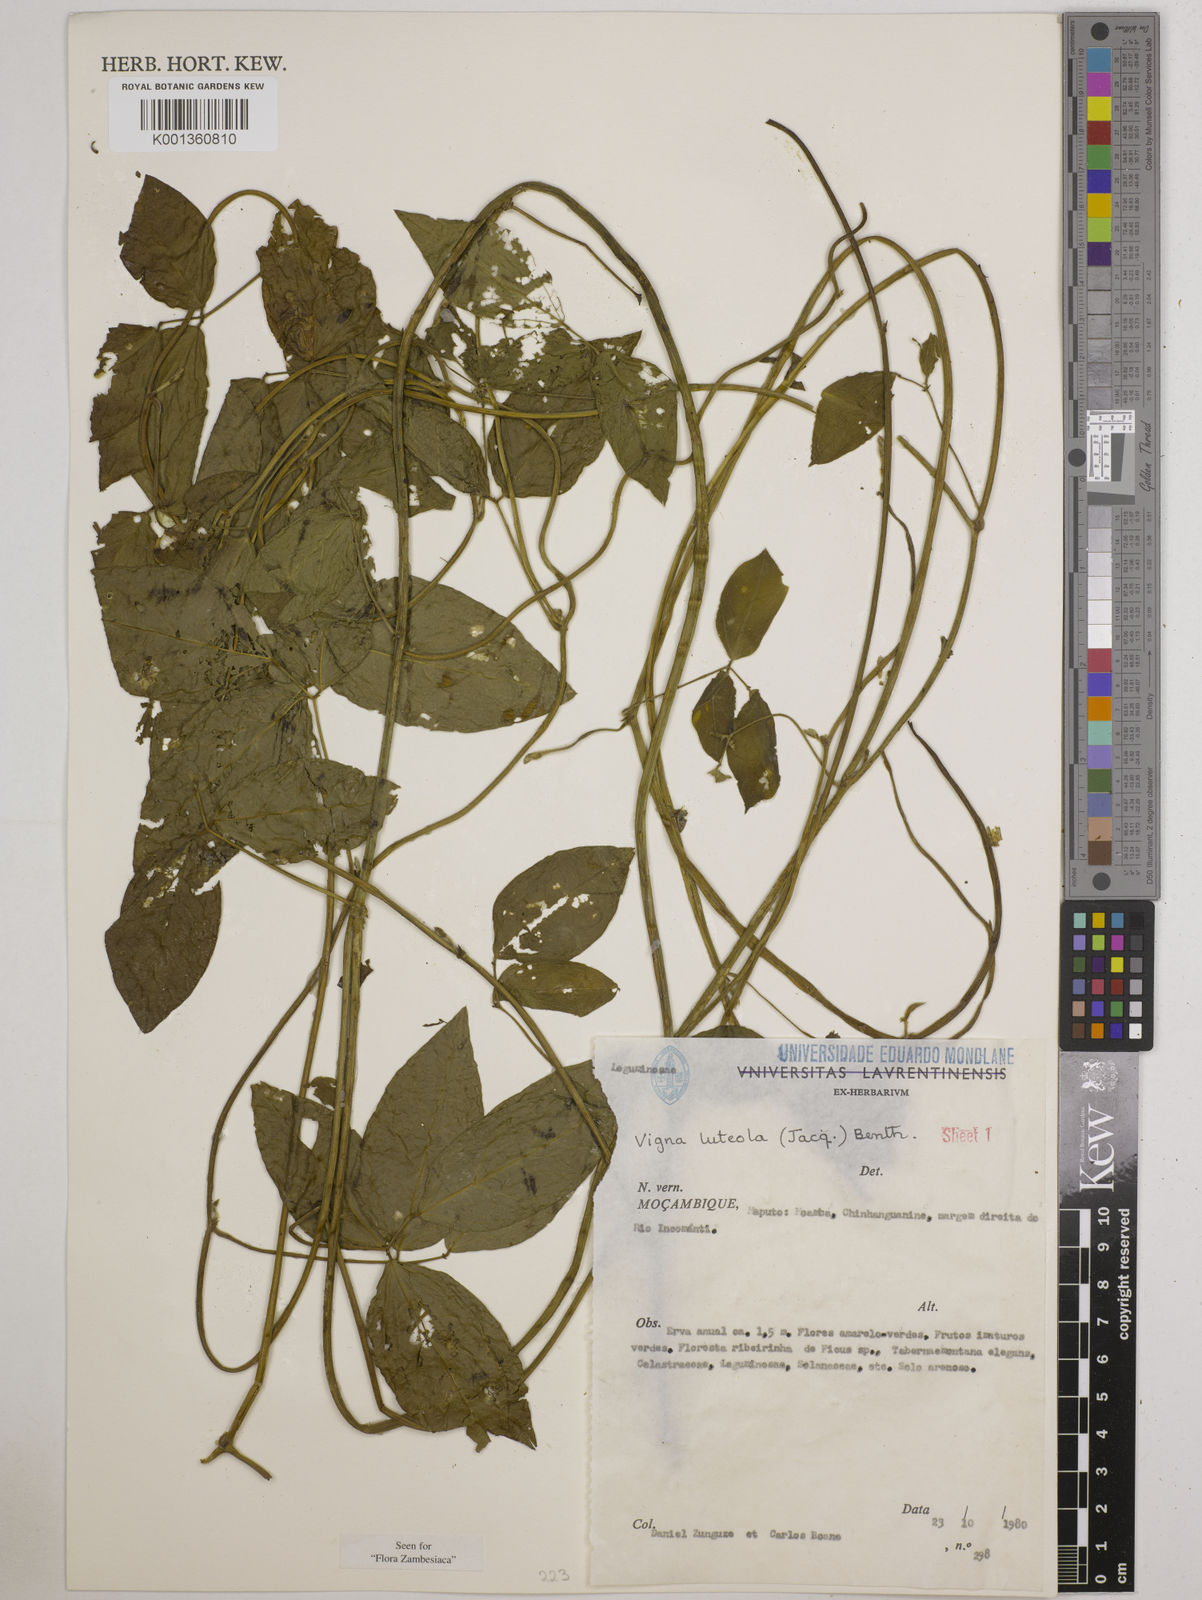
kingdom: Plantae
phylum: Tracheophyta
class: Magnoliopsida
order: Fabales
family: Fabaceae
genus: Vigna
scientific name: Vigna luteola
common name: Hairypod cowpea
